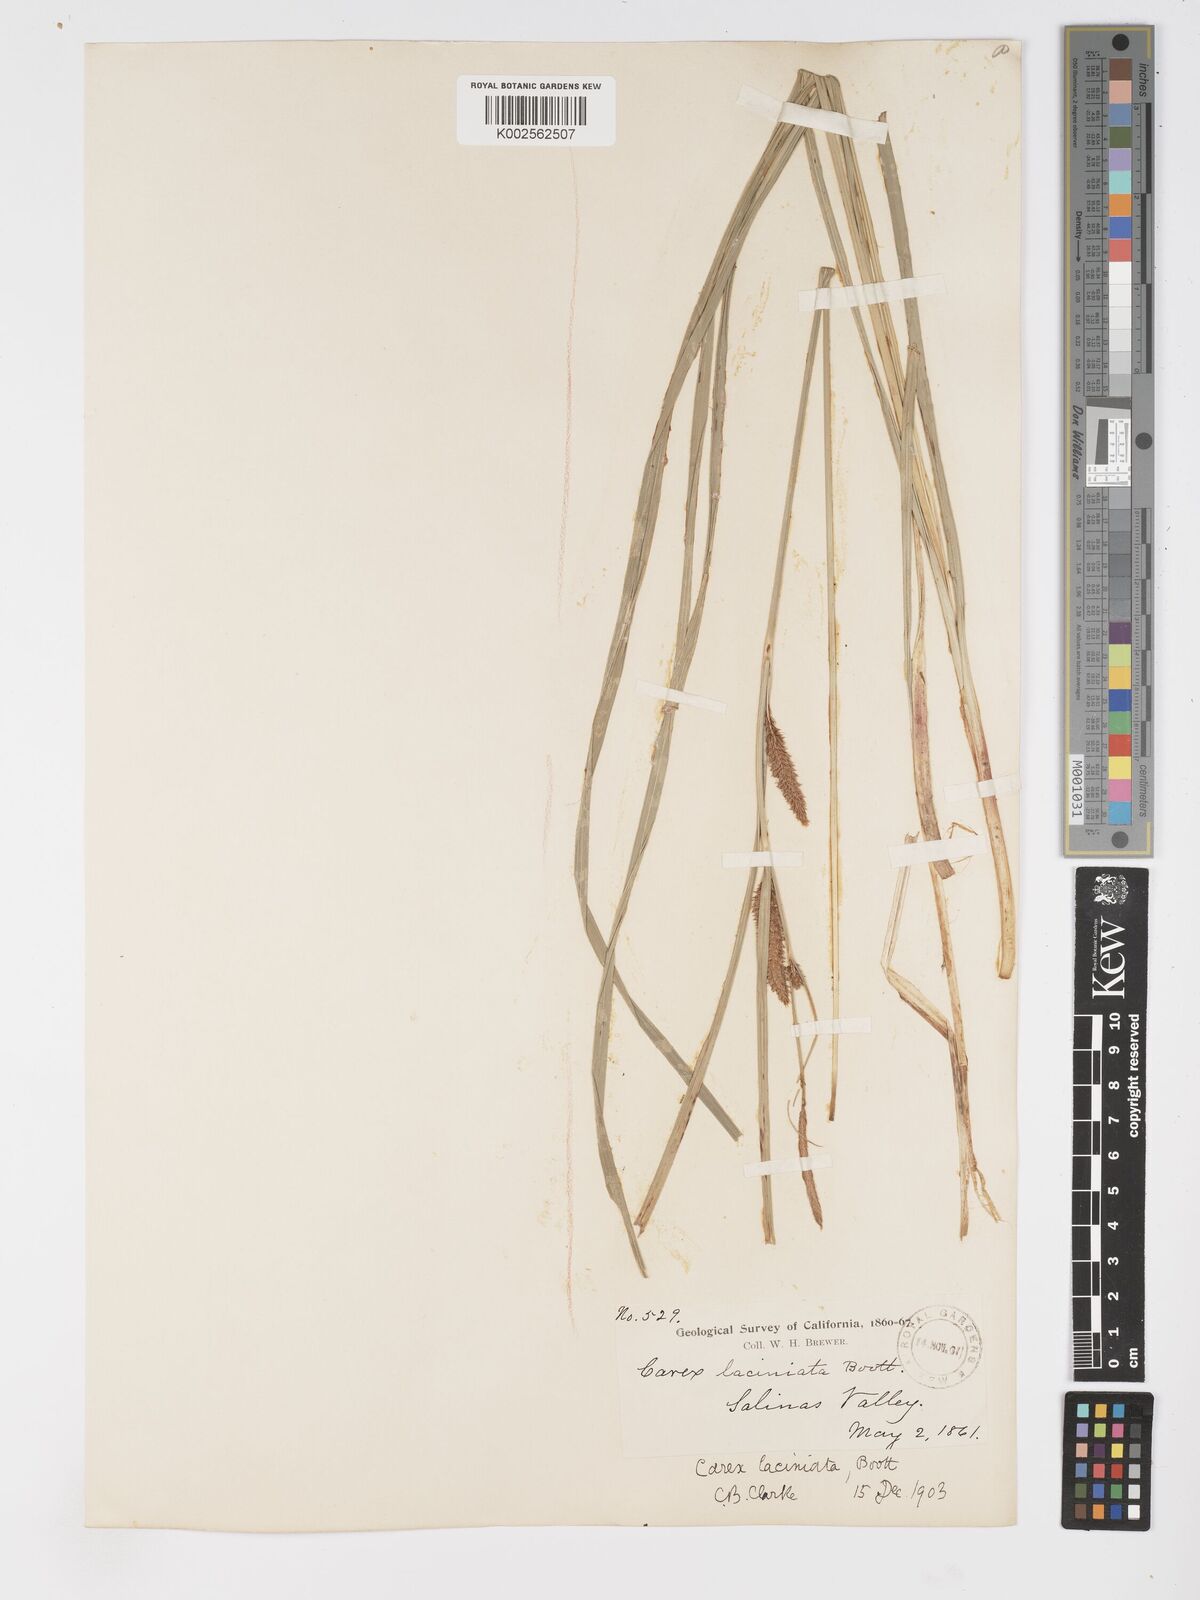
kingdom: Plantae
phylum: Tracheophyta
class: Liliopsida
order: Poales
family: Cyperaceae
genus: Carex
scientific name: Carex barbarae
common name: Santa barbara sedge
